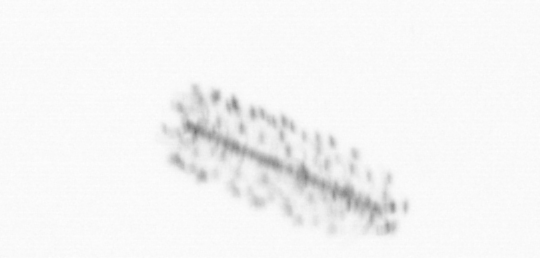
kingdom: Chromista
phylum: Ochrophyta
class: Bacillariophyceae
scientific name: Bacillariophyceae
